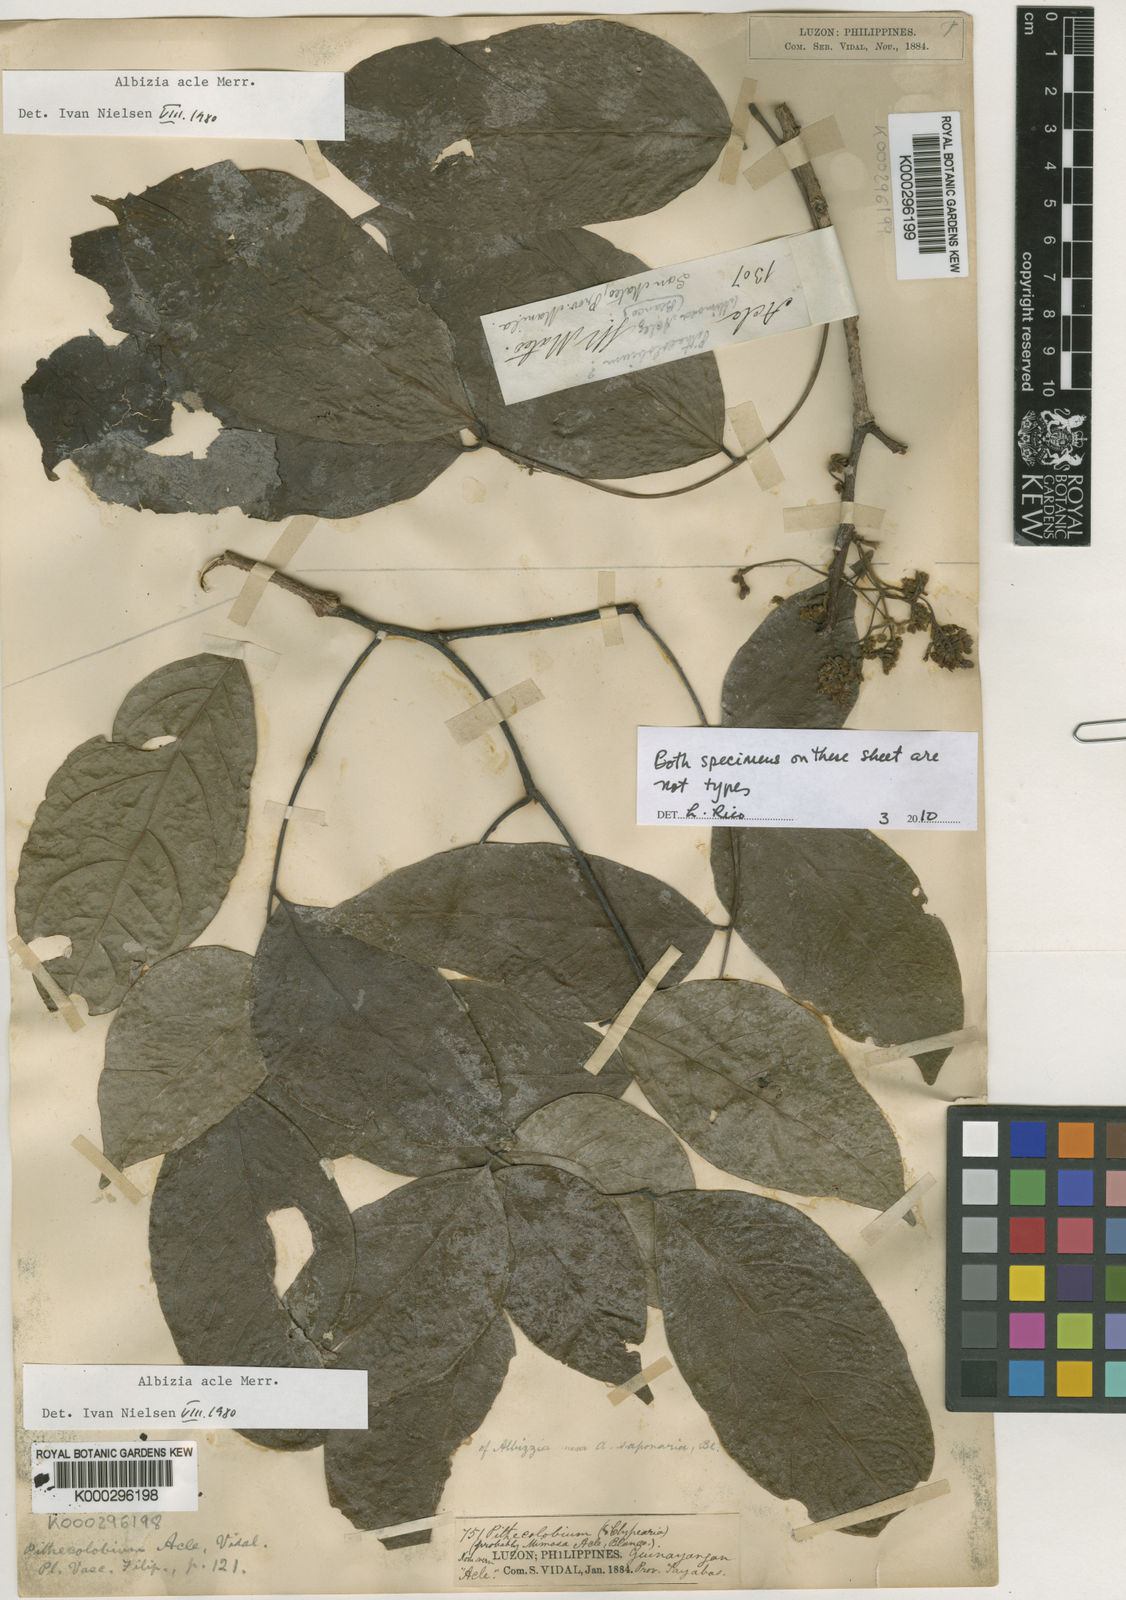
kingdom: Plantae
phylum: Tracheophyta
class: Magnoliopsida
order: Fabales
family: Fabaceae
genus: Albizia
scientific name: Albizia acle
